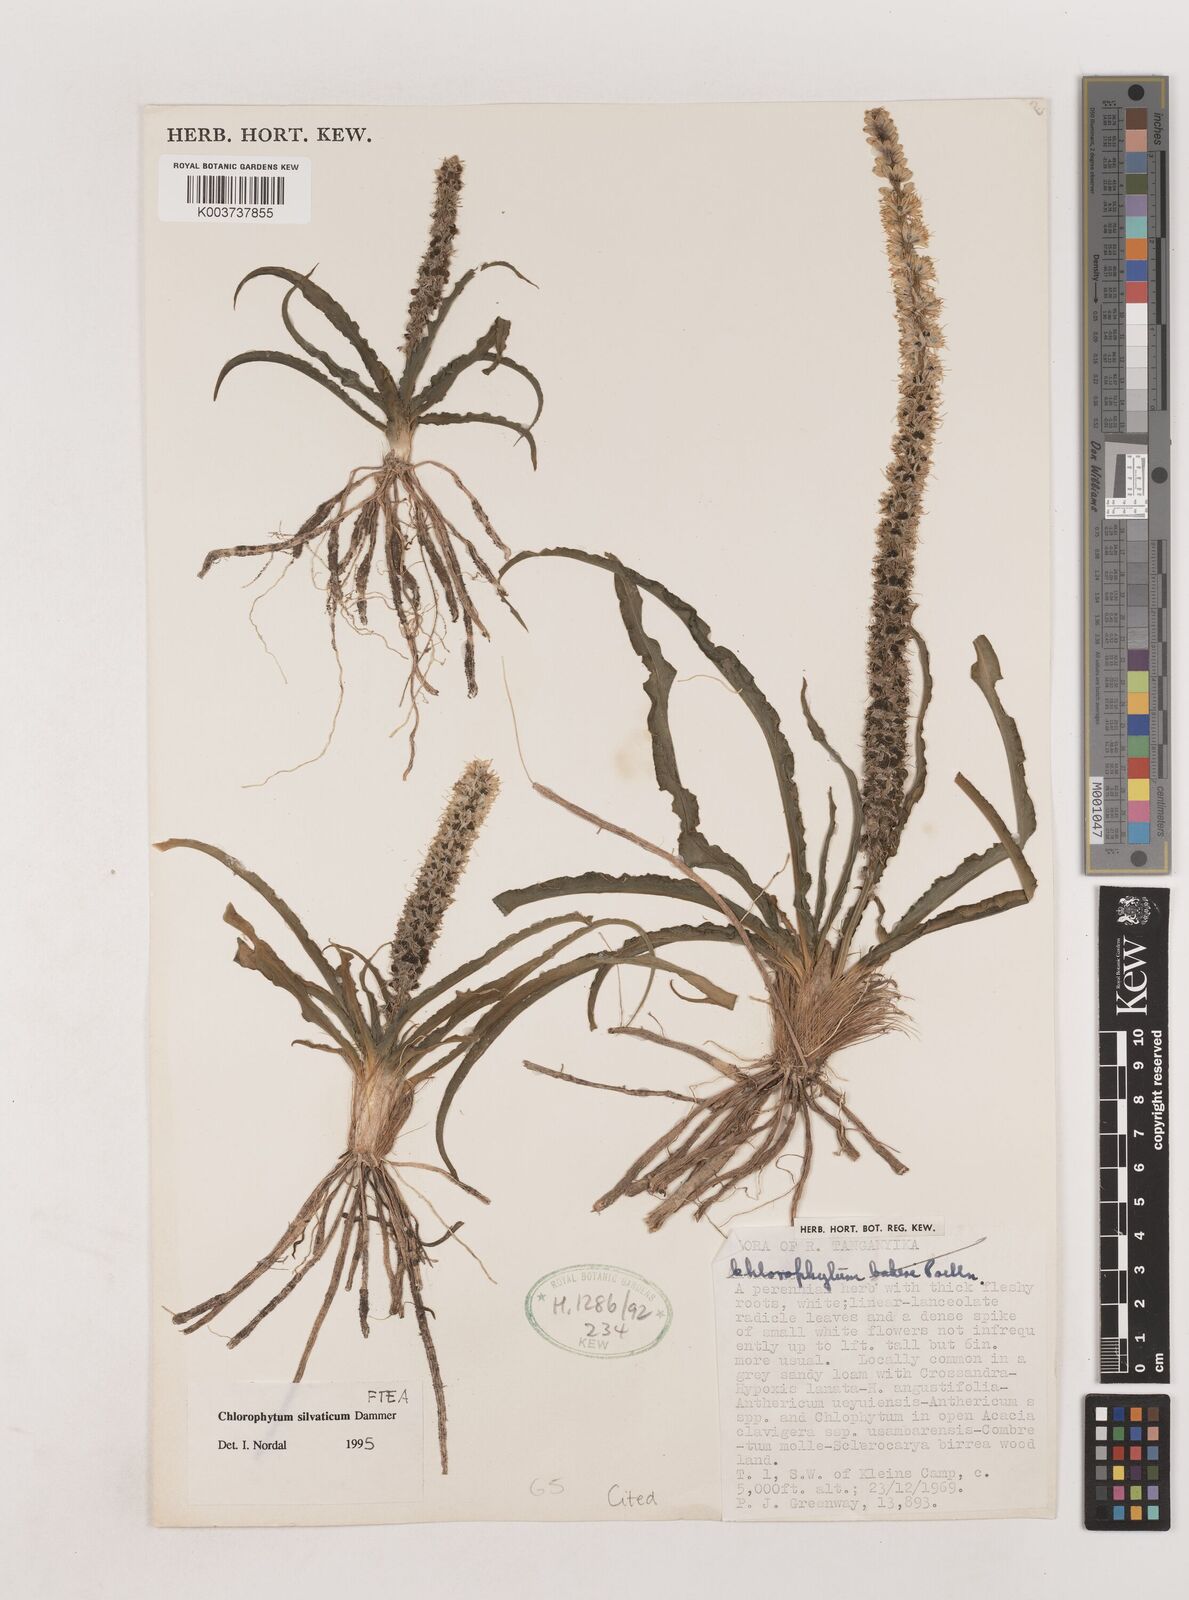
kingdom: Plantae
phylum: Tracheophyta
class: Liliopsida
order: Asparagales
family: Asparagaceae
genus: Chlorophytum
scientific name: Chlorophytum africanum
